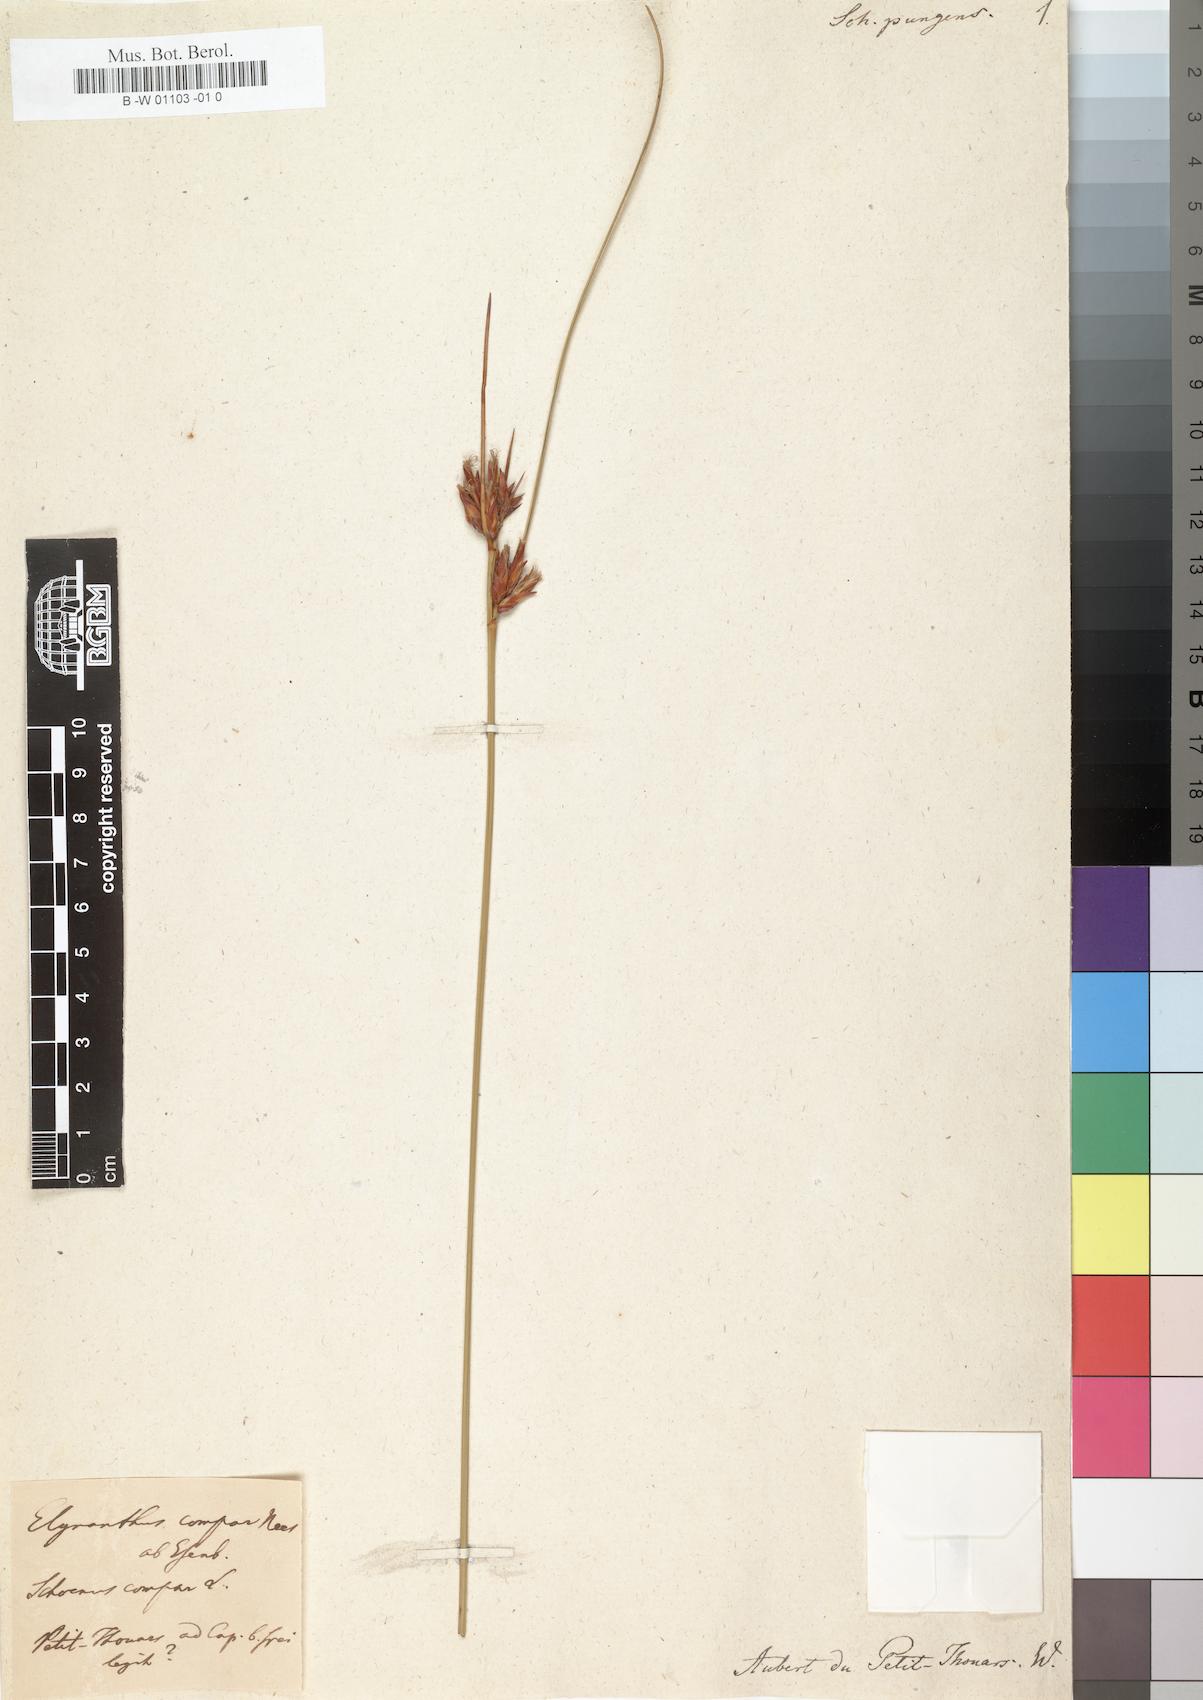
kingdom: Plantae
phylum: Tracheophyta
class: Liliopsida
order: Poales
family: Cyperaceae
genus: Schoenus
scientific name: Schoenus compar
